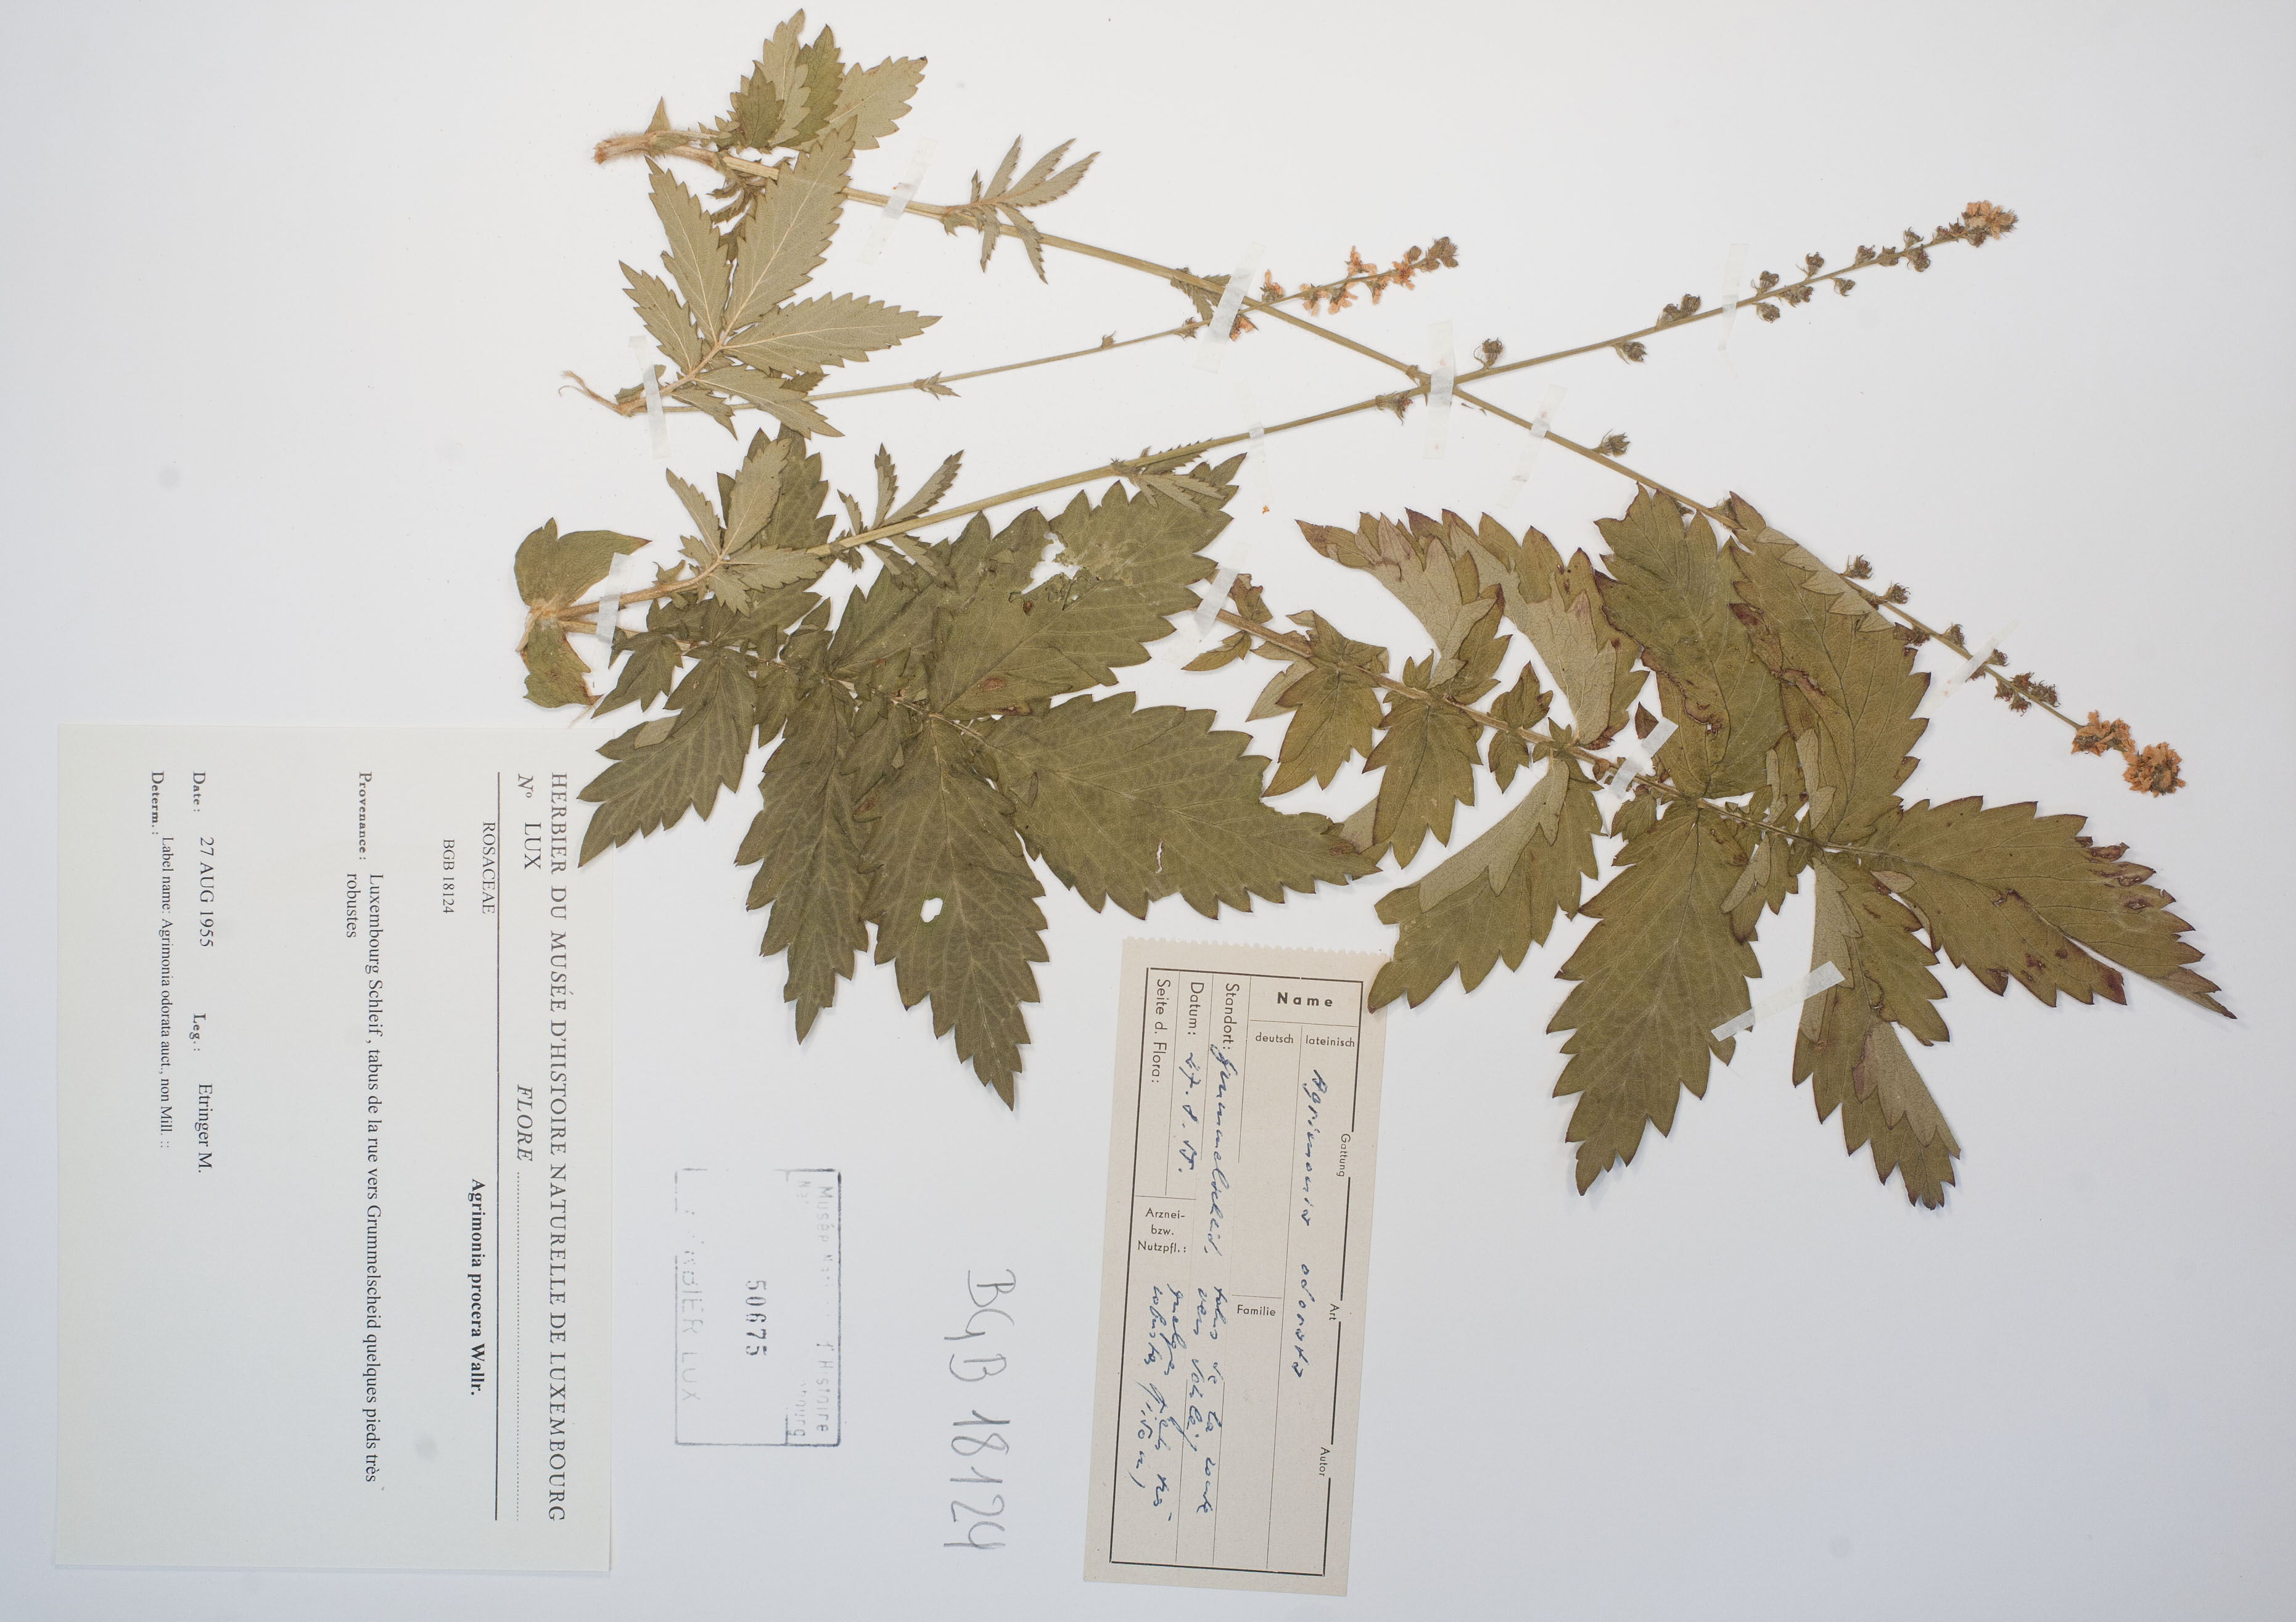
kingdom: Plantae
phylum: Tracheophyta
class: Magnoliopsida
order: Rosales
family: Rosaceae
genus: Agrimonia
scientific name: Agrimonia procera
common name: Fragrant agrimony
